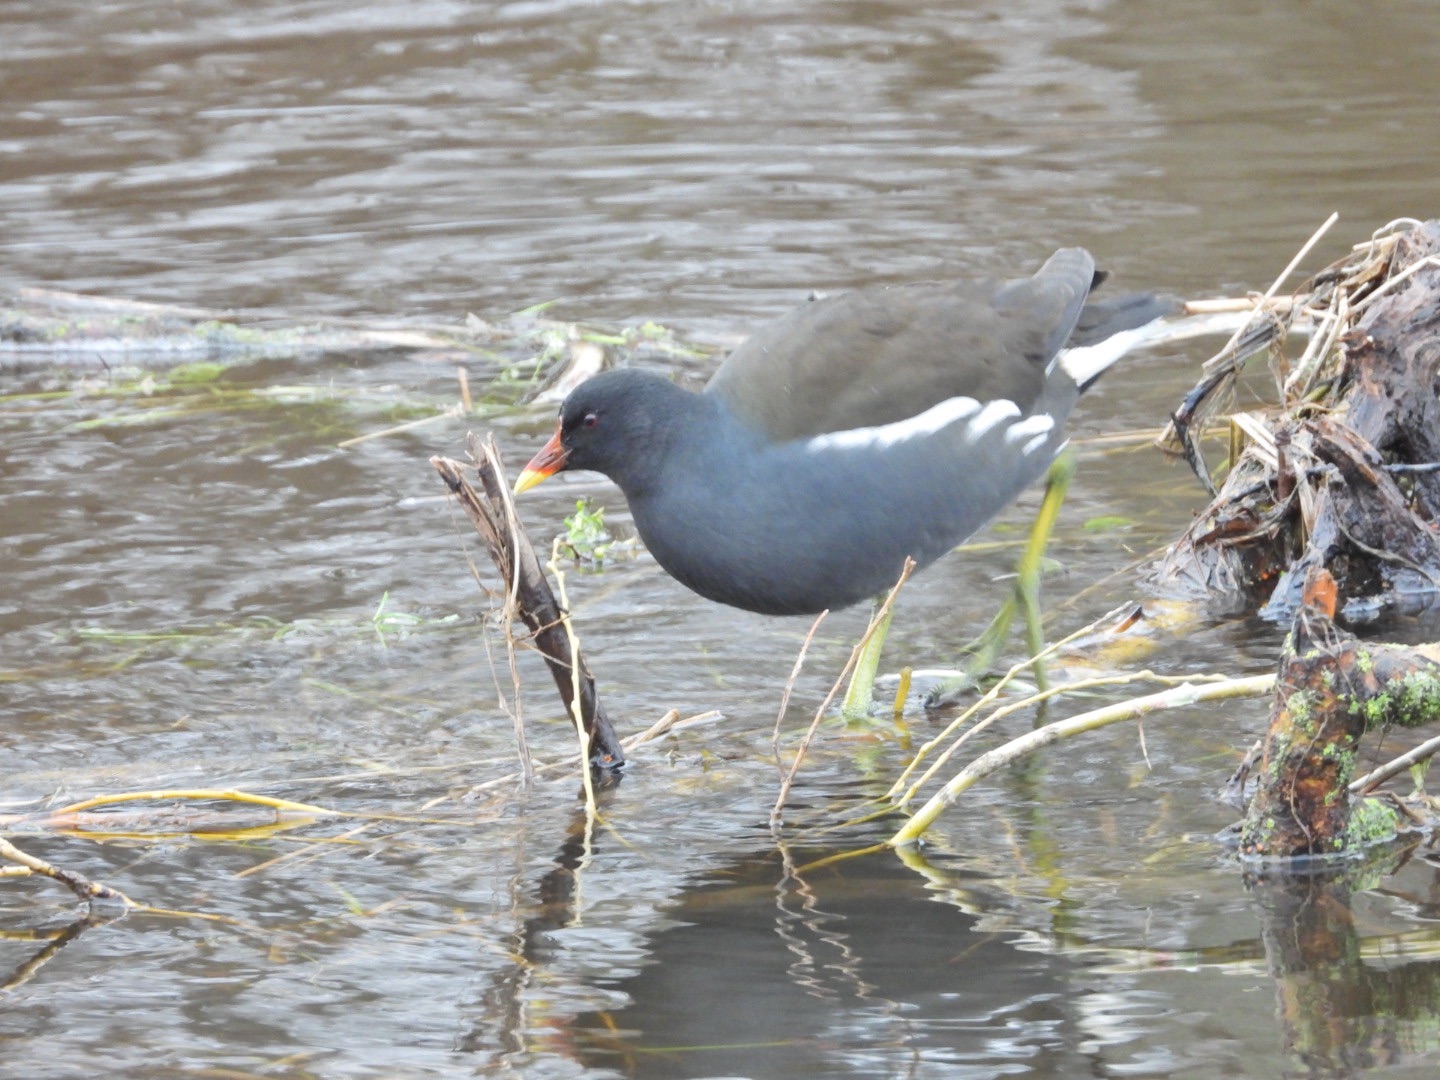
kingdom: Animalia
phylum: Chordata
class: Aves
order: Gruiformes
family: Rallidae
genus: Gallinula
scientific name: Gallinula chloropus
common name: Grønbenet rørhøne
